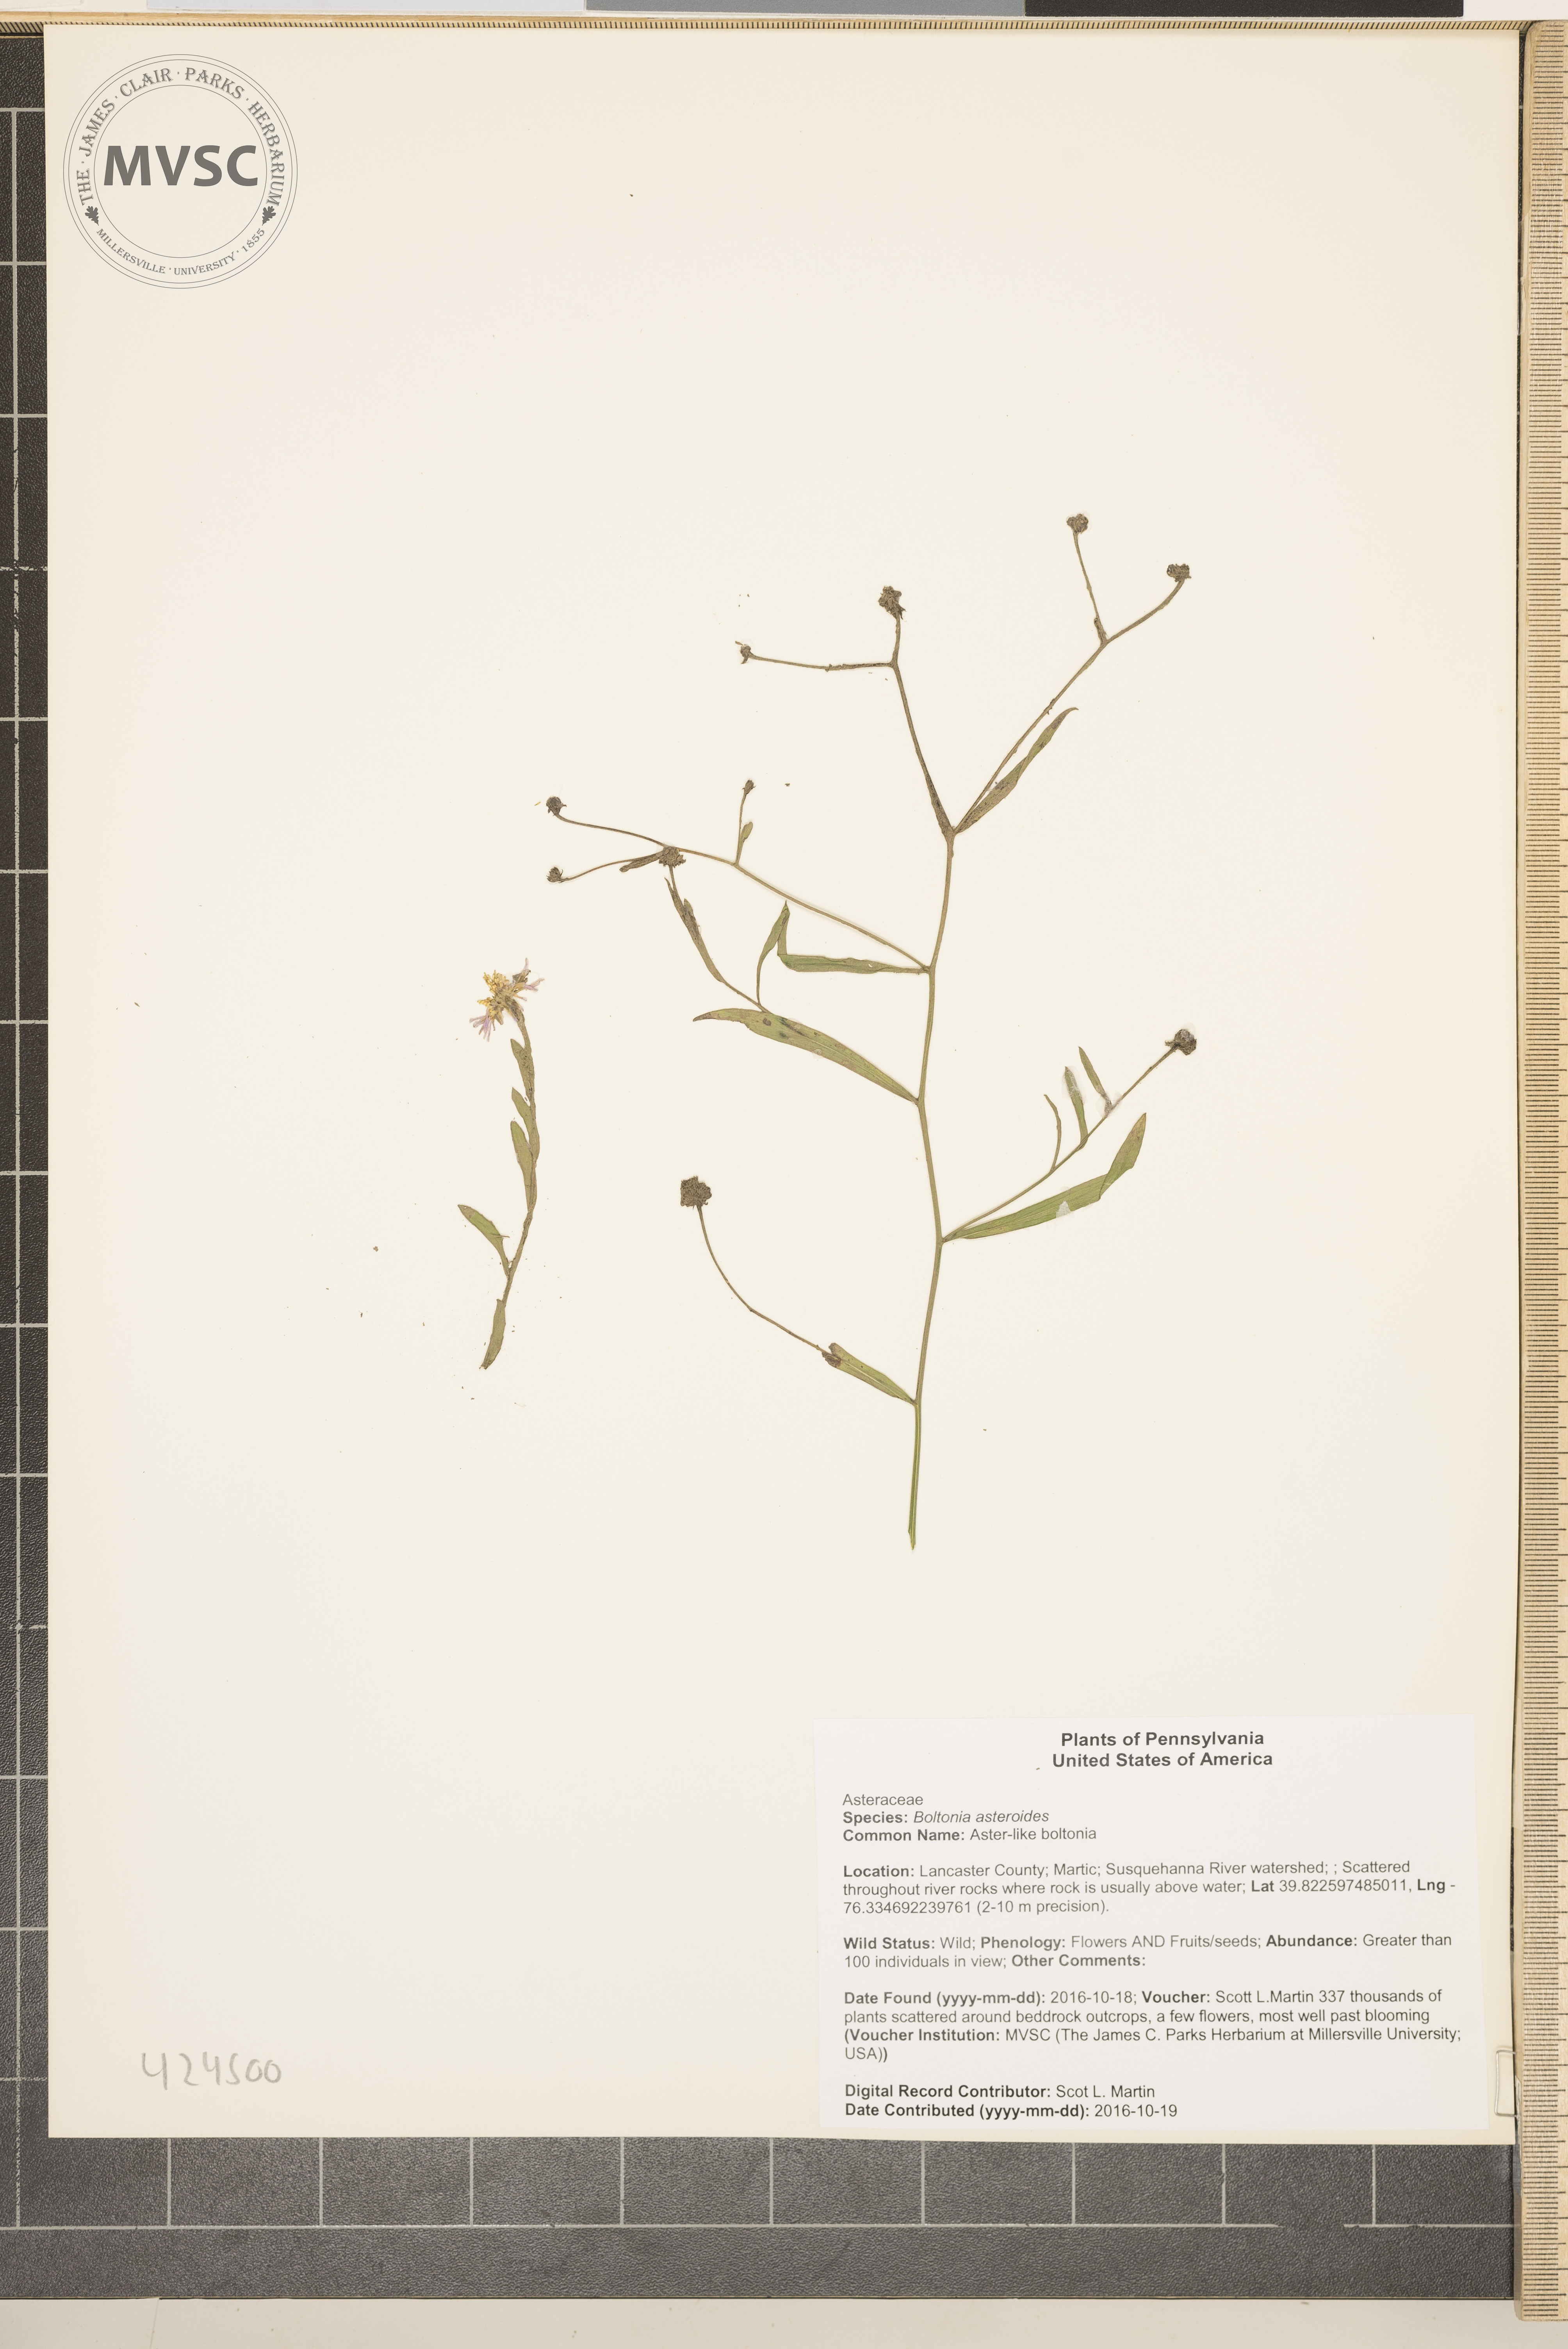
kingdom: Plantae
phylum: Tracheophyta
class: Magnoliopsida
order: Asterales
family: Asteraceae
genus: Boltonia
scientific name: Boltonia asteroides
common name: Aster-like boltonia
